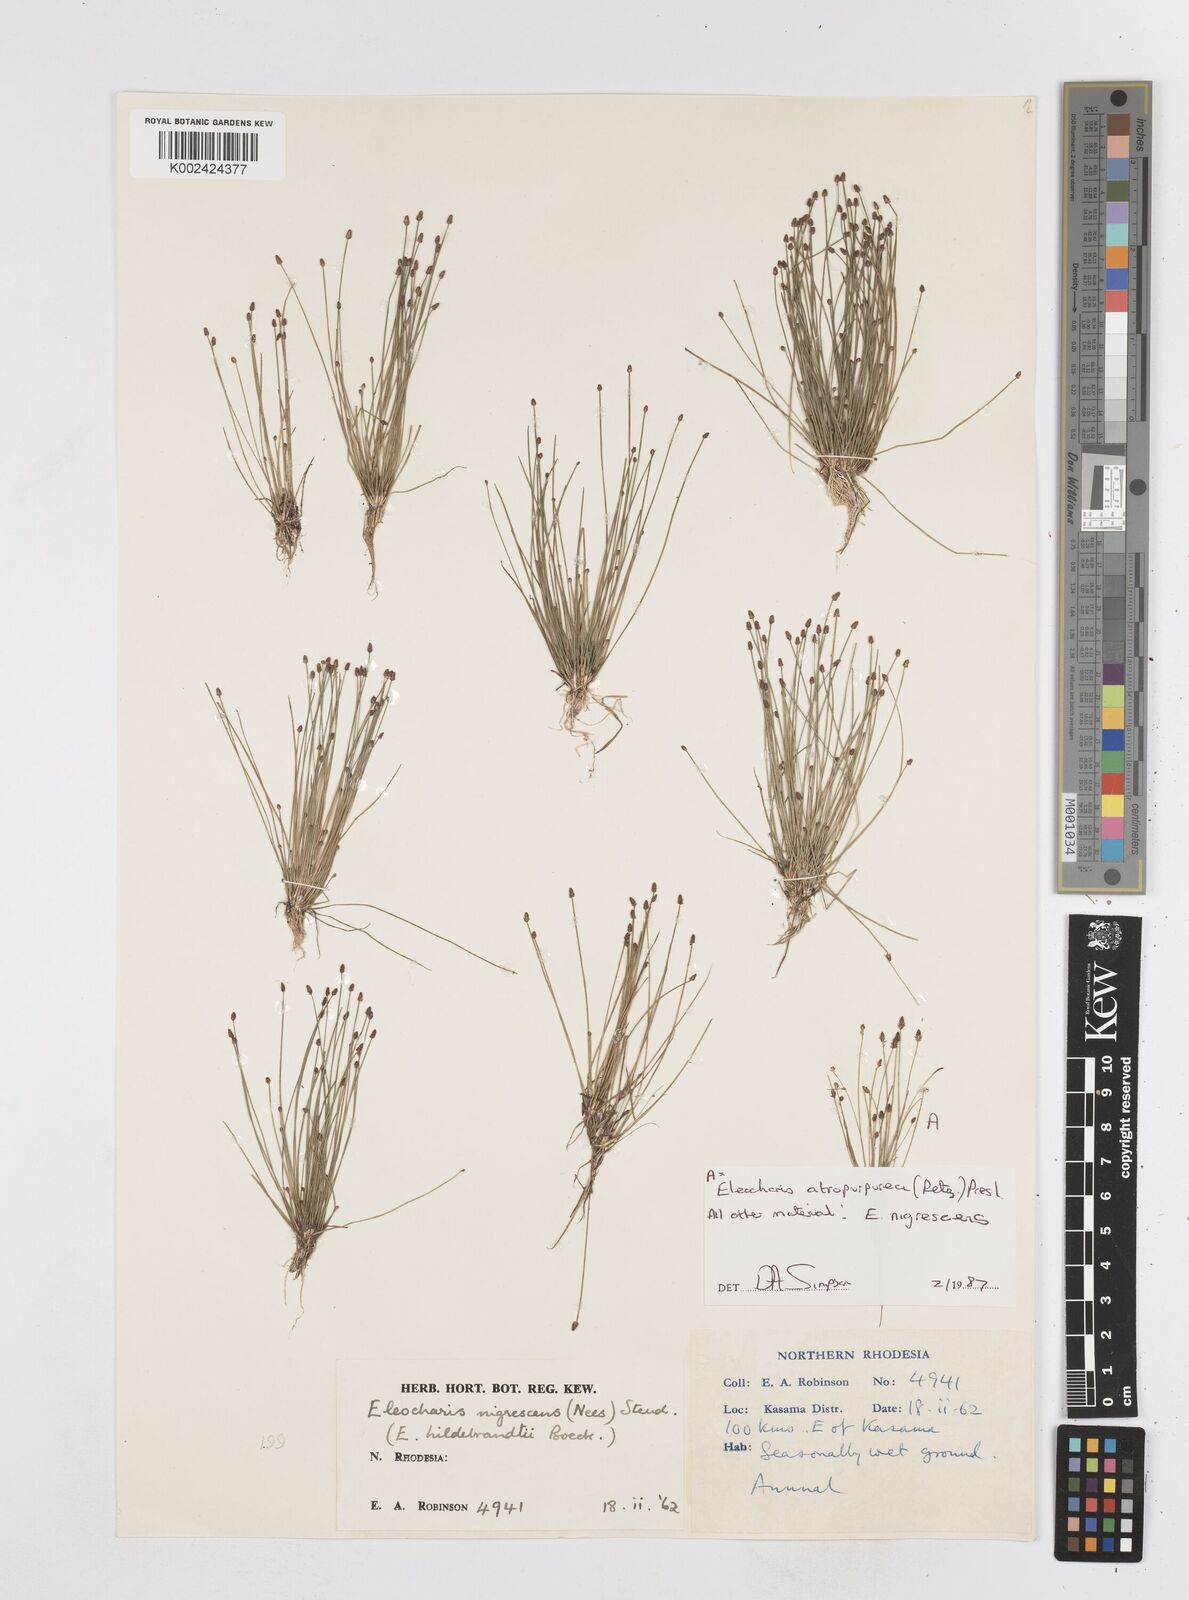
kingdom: Plantae
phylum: Tracheophyta
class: Liliopsida
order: Poales
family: Cyperaceae
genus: Eleocharis
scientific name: Eleocharis nigrescens
